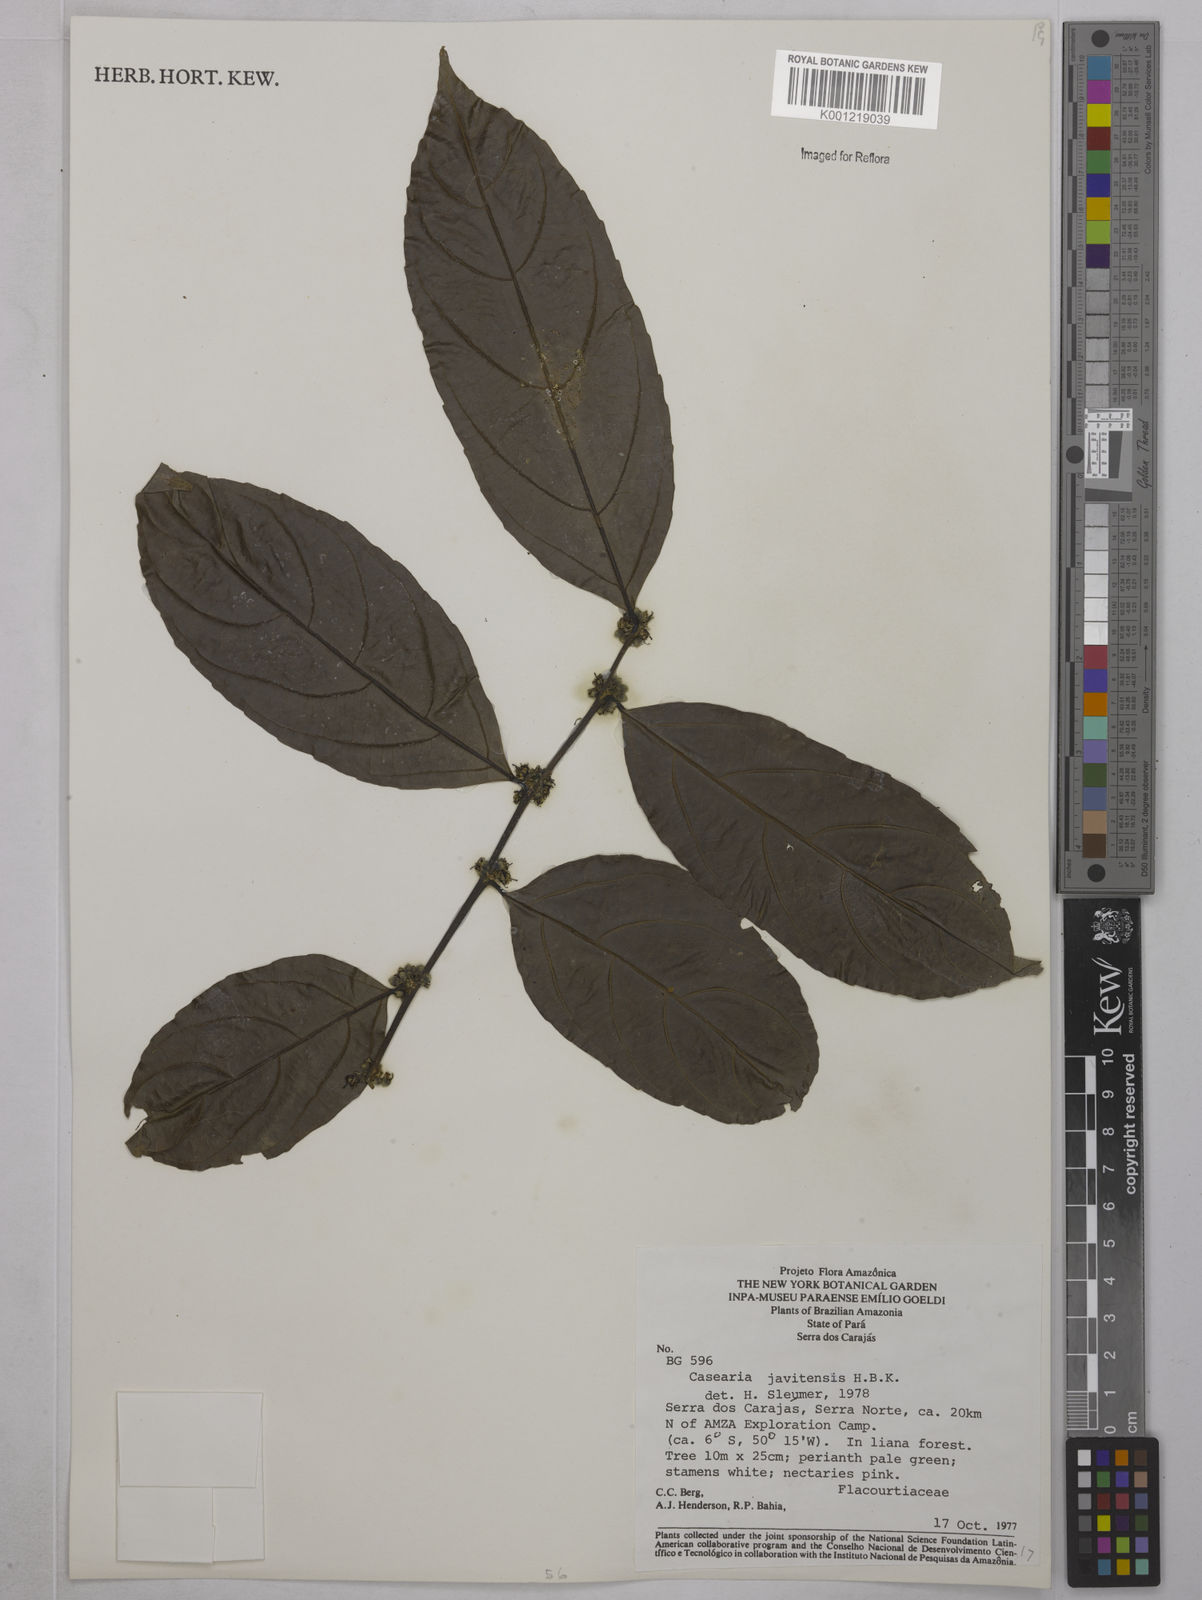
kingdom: Plantae
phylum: Tracheophyta
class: Magnoliopsida
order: Malpighiales
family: Salicaceae
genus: Piparea
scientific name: Piparea multiflora
